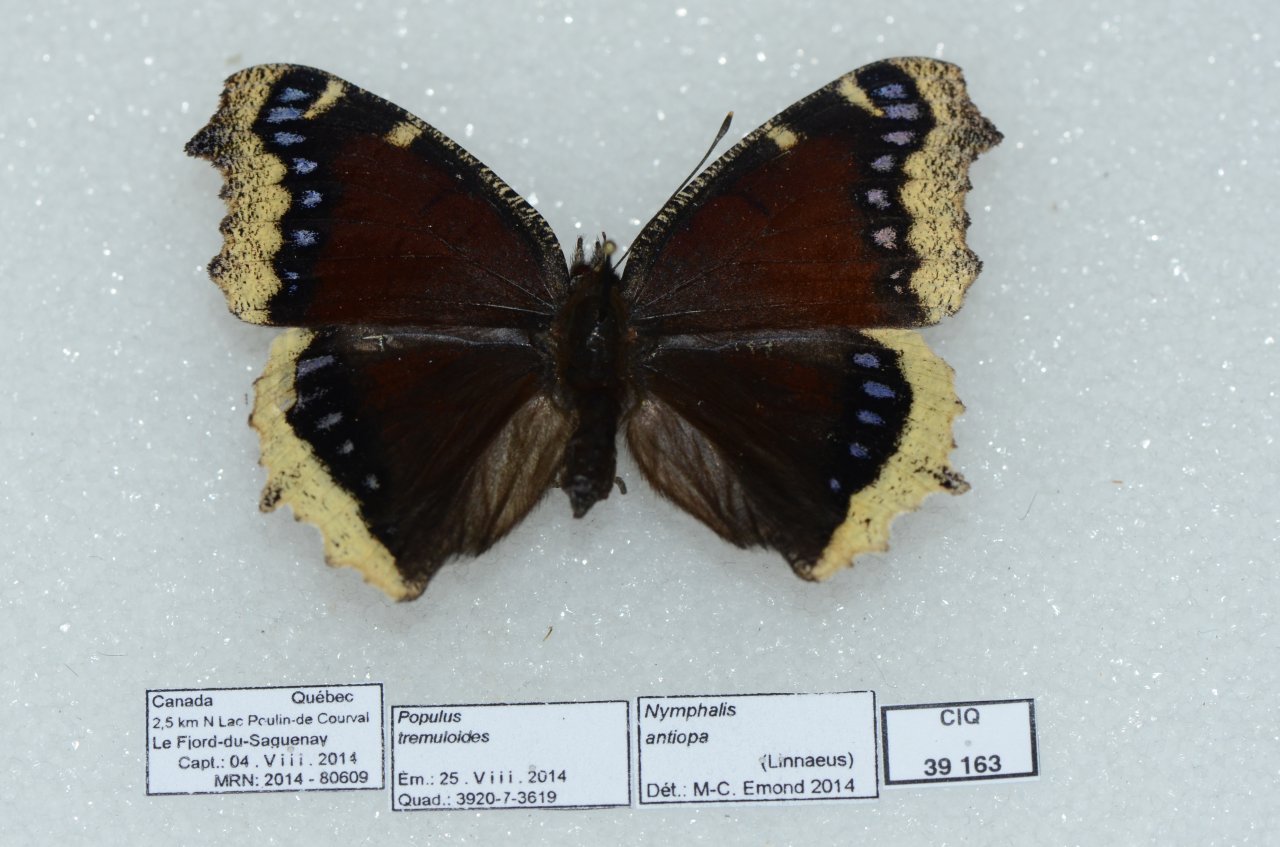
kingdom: Animalia
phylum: Arthropoda
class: Insecta
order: Lepidoptera
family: Nymphalidae
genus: Nymphalis
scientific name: Nymphalis antiopa
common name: Mourning Cloak
